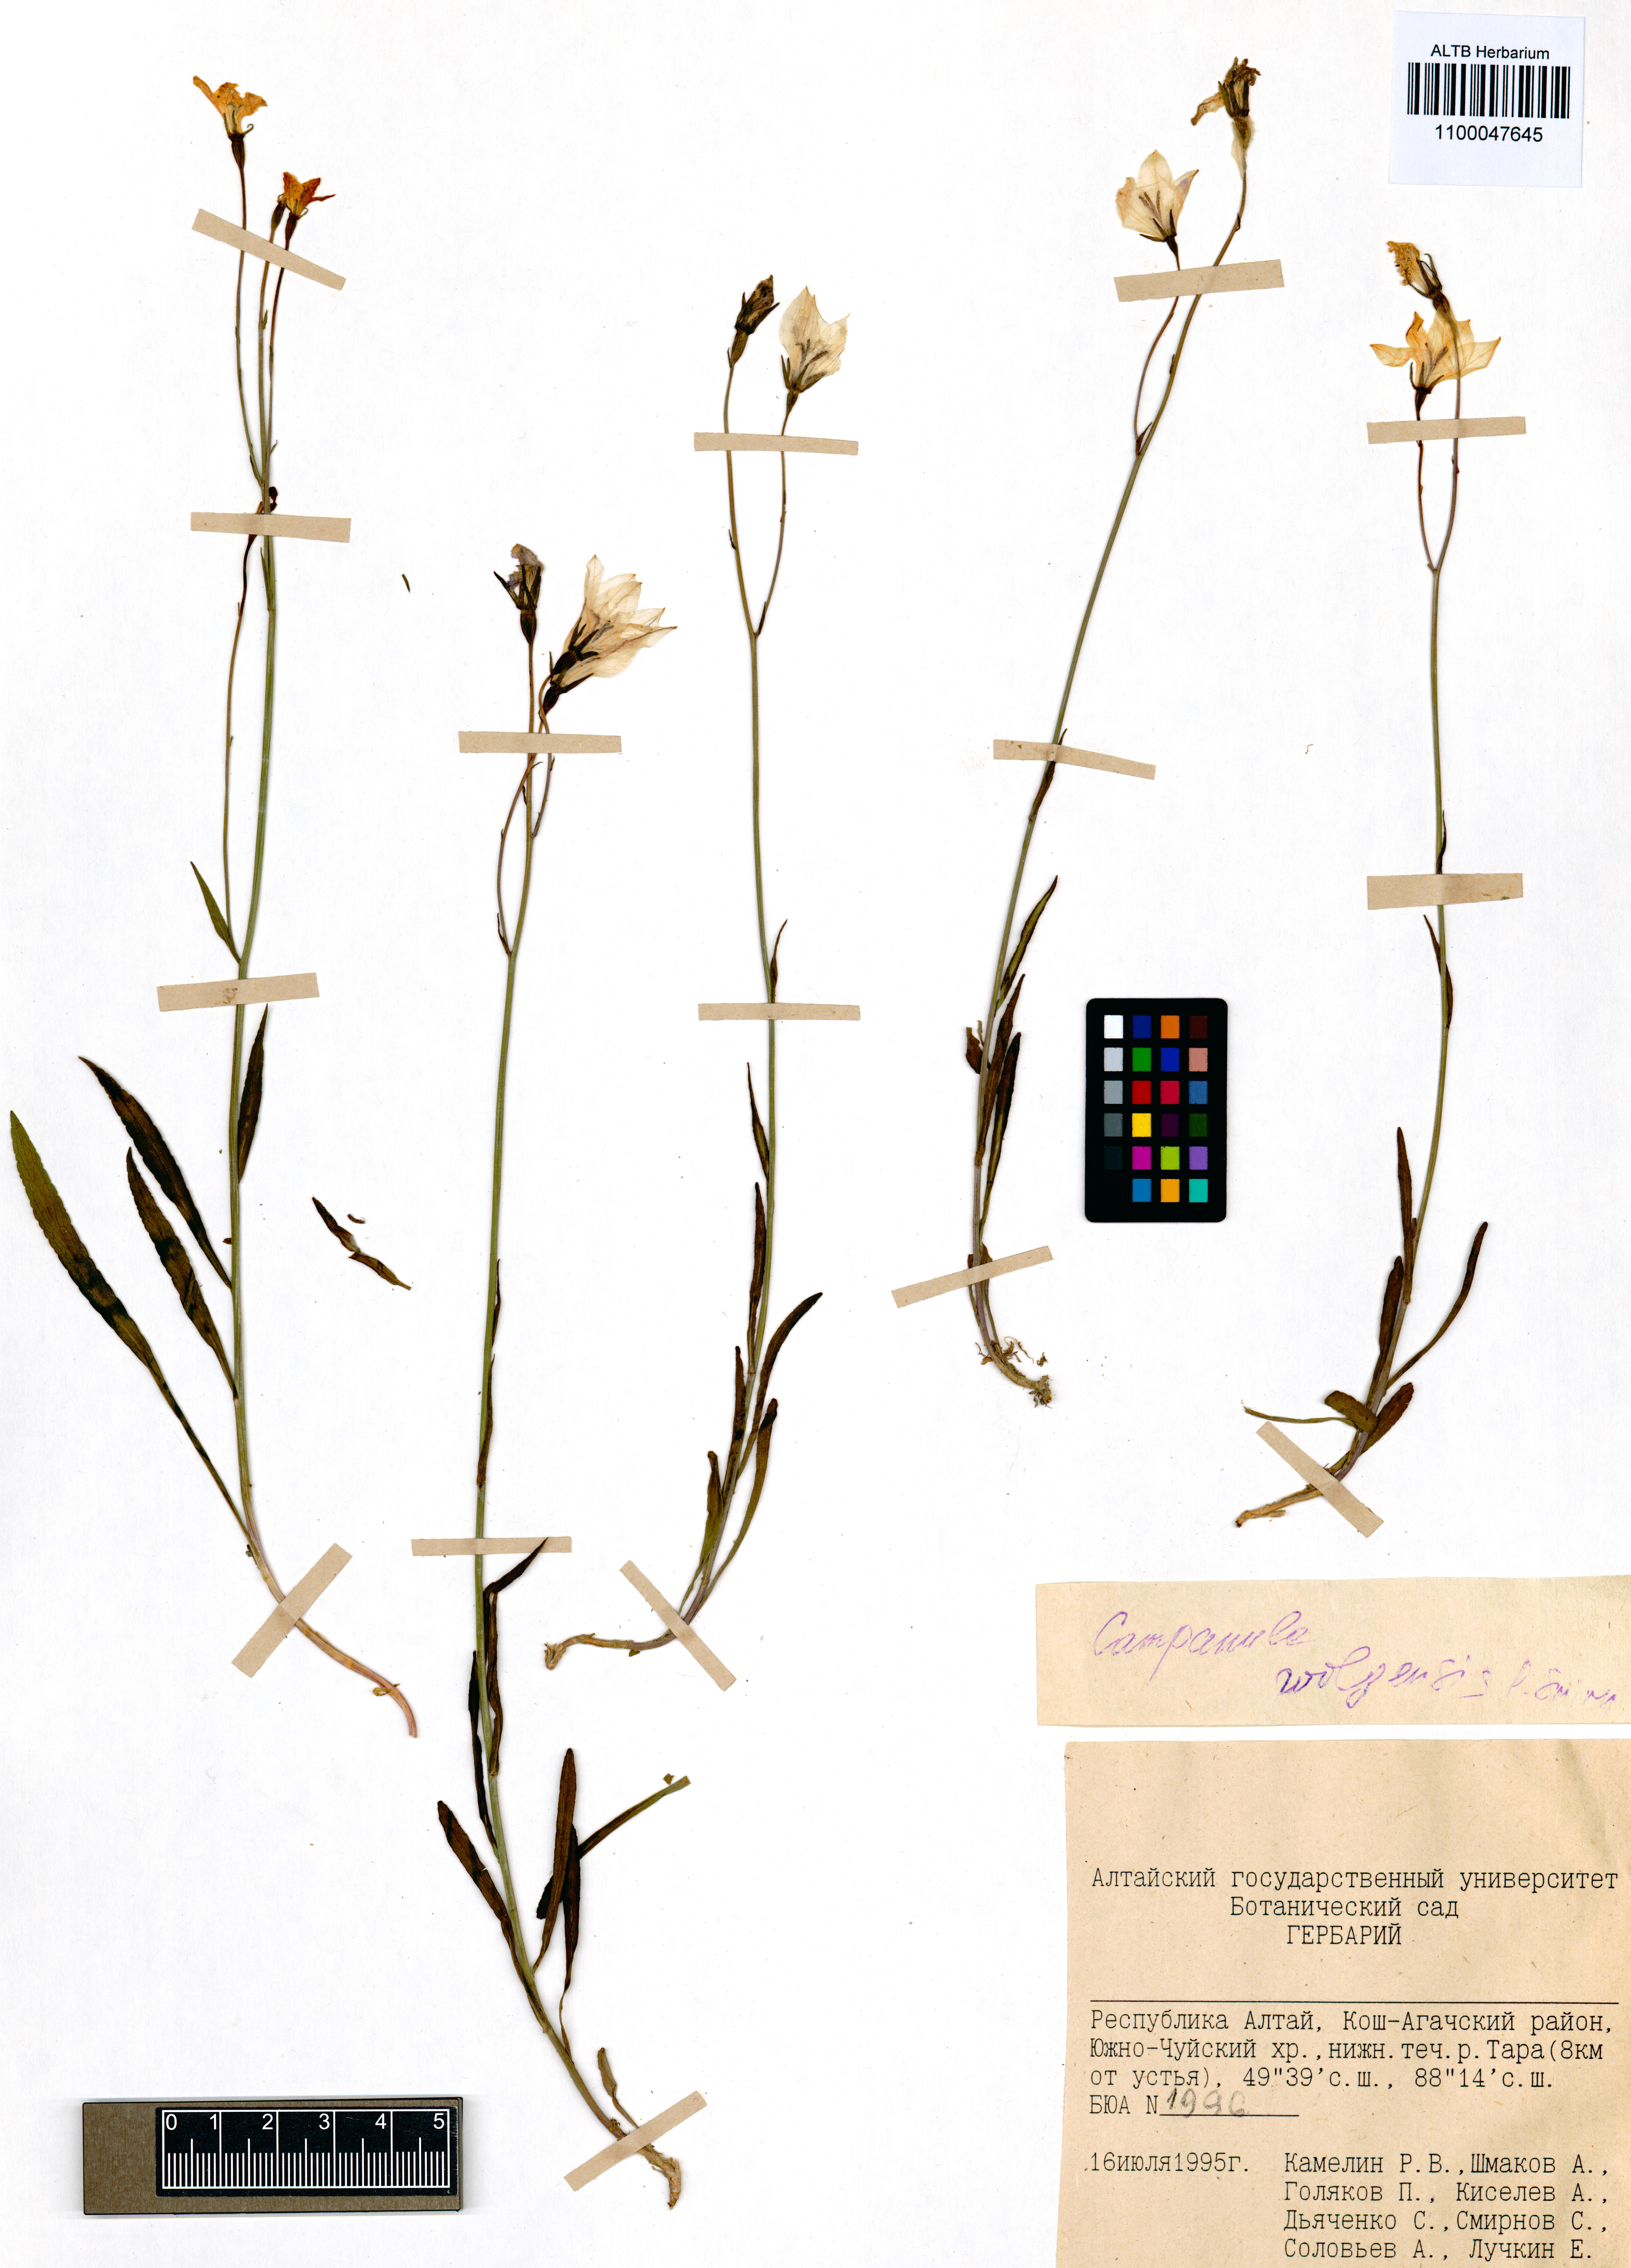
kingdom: Plantae
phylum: Tracheophyta
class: Magnoliopsida
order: Asterales
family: Campanulaceae
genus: Campanula
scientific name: Campanula stevenii
